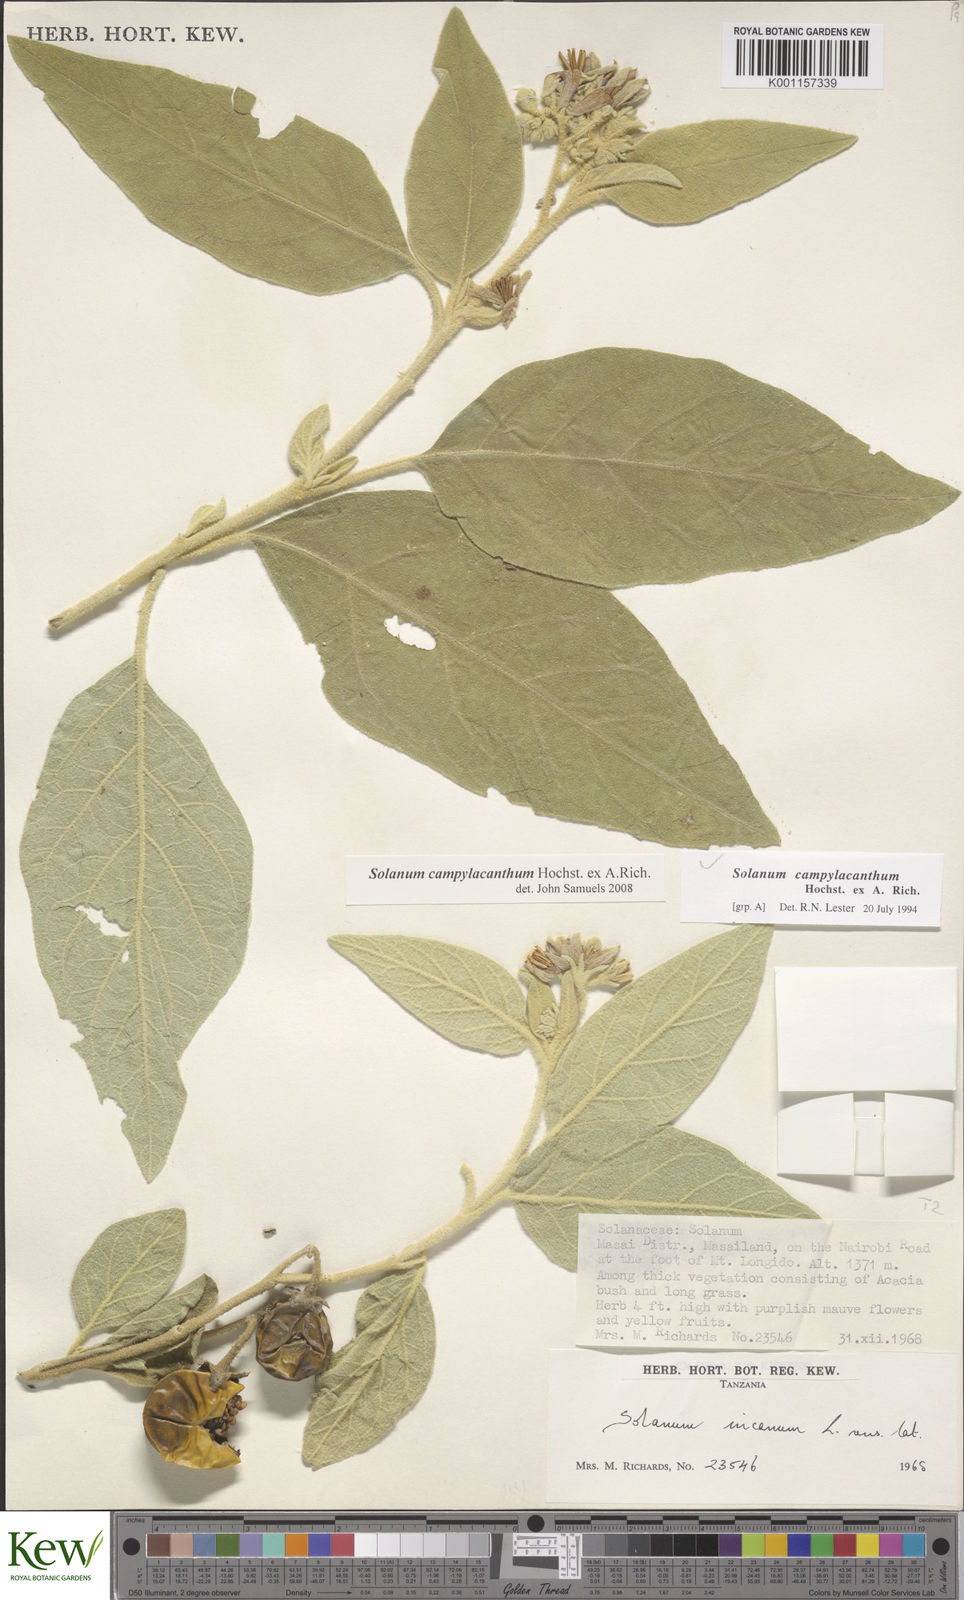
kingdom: Plantae
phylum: Tracheophyta
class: Magnoliopsida
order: Solanales
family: Solanaceae
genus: Solanum
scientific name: Solanum campylacanthum
